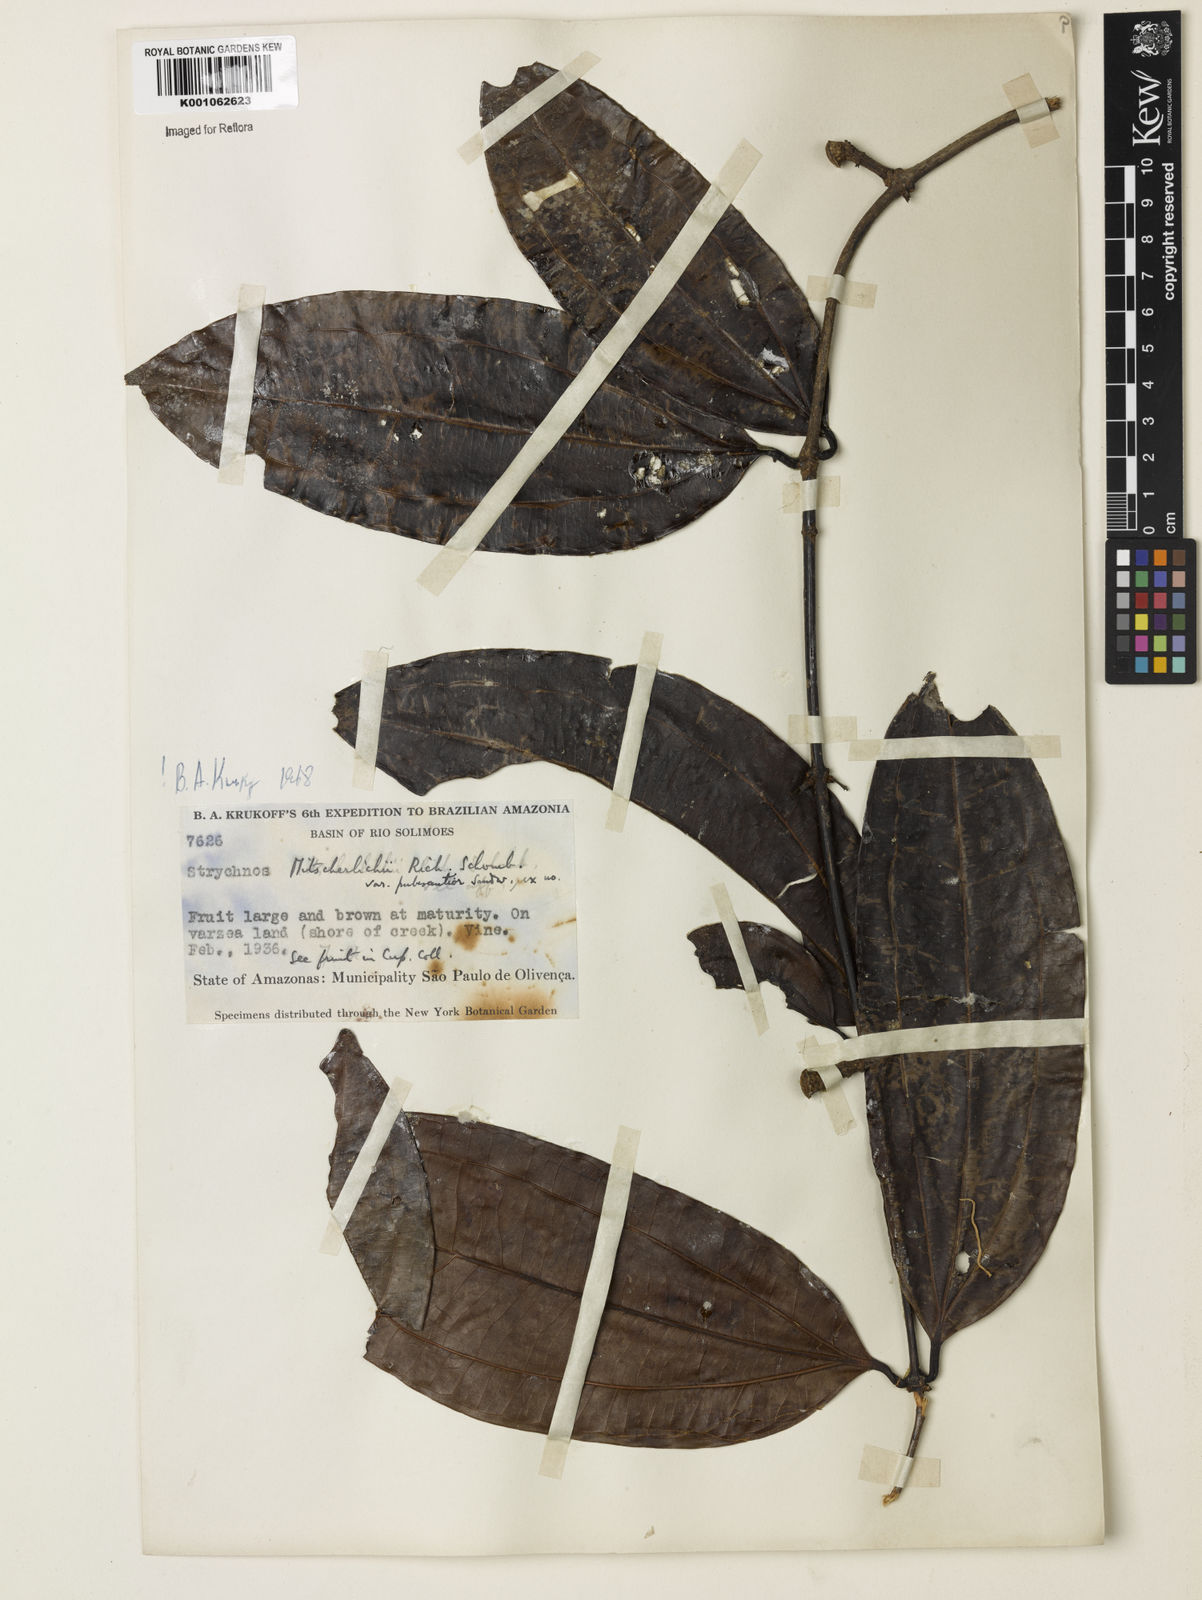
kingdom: Plantae
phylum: Tracheophyta
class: Magnoliopsida
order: Gentianales
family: Loganiaceae
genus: Strychnos
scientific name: Strychnos mitscherlichii
